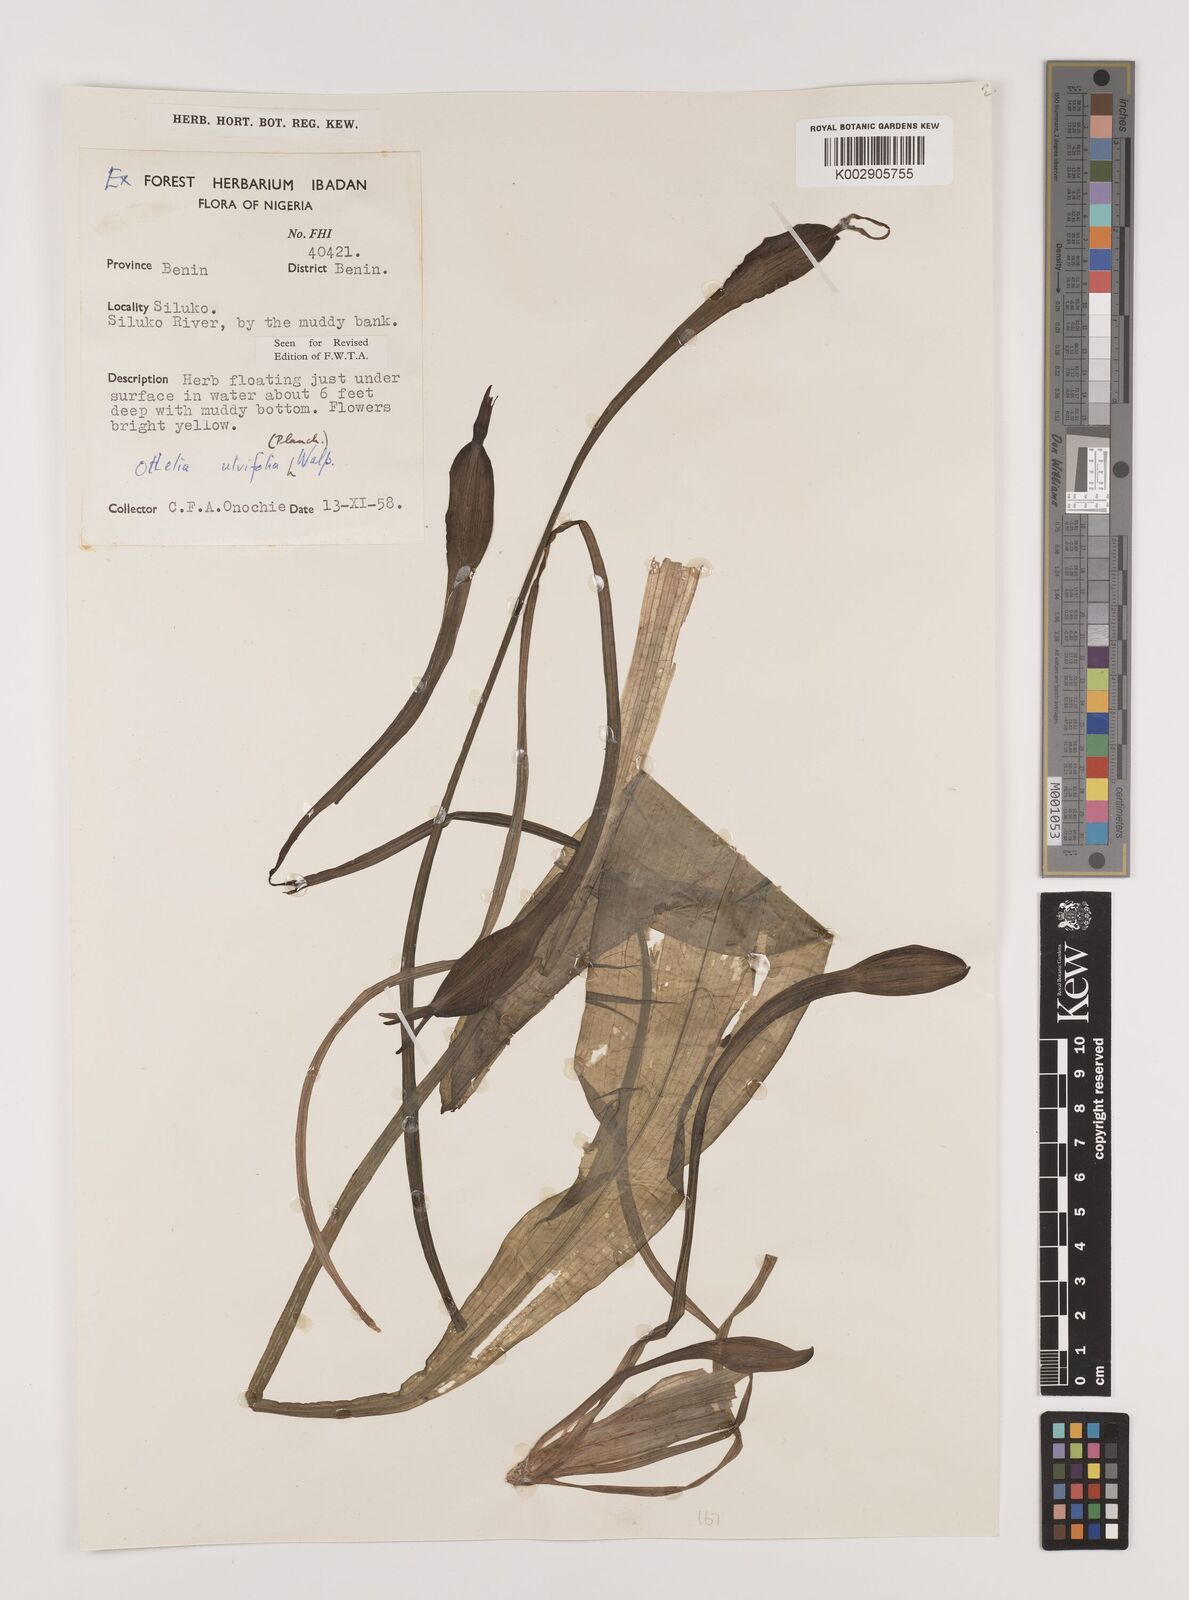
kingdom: Plantae
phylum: Tracheophyta
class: Liliopsida
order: Alismatales
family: Hydrocharitaceae
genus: Ottelia
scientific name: Ottelia ulvifolia
